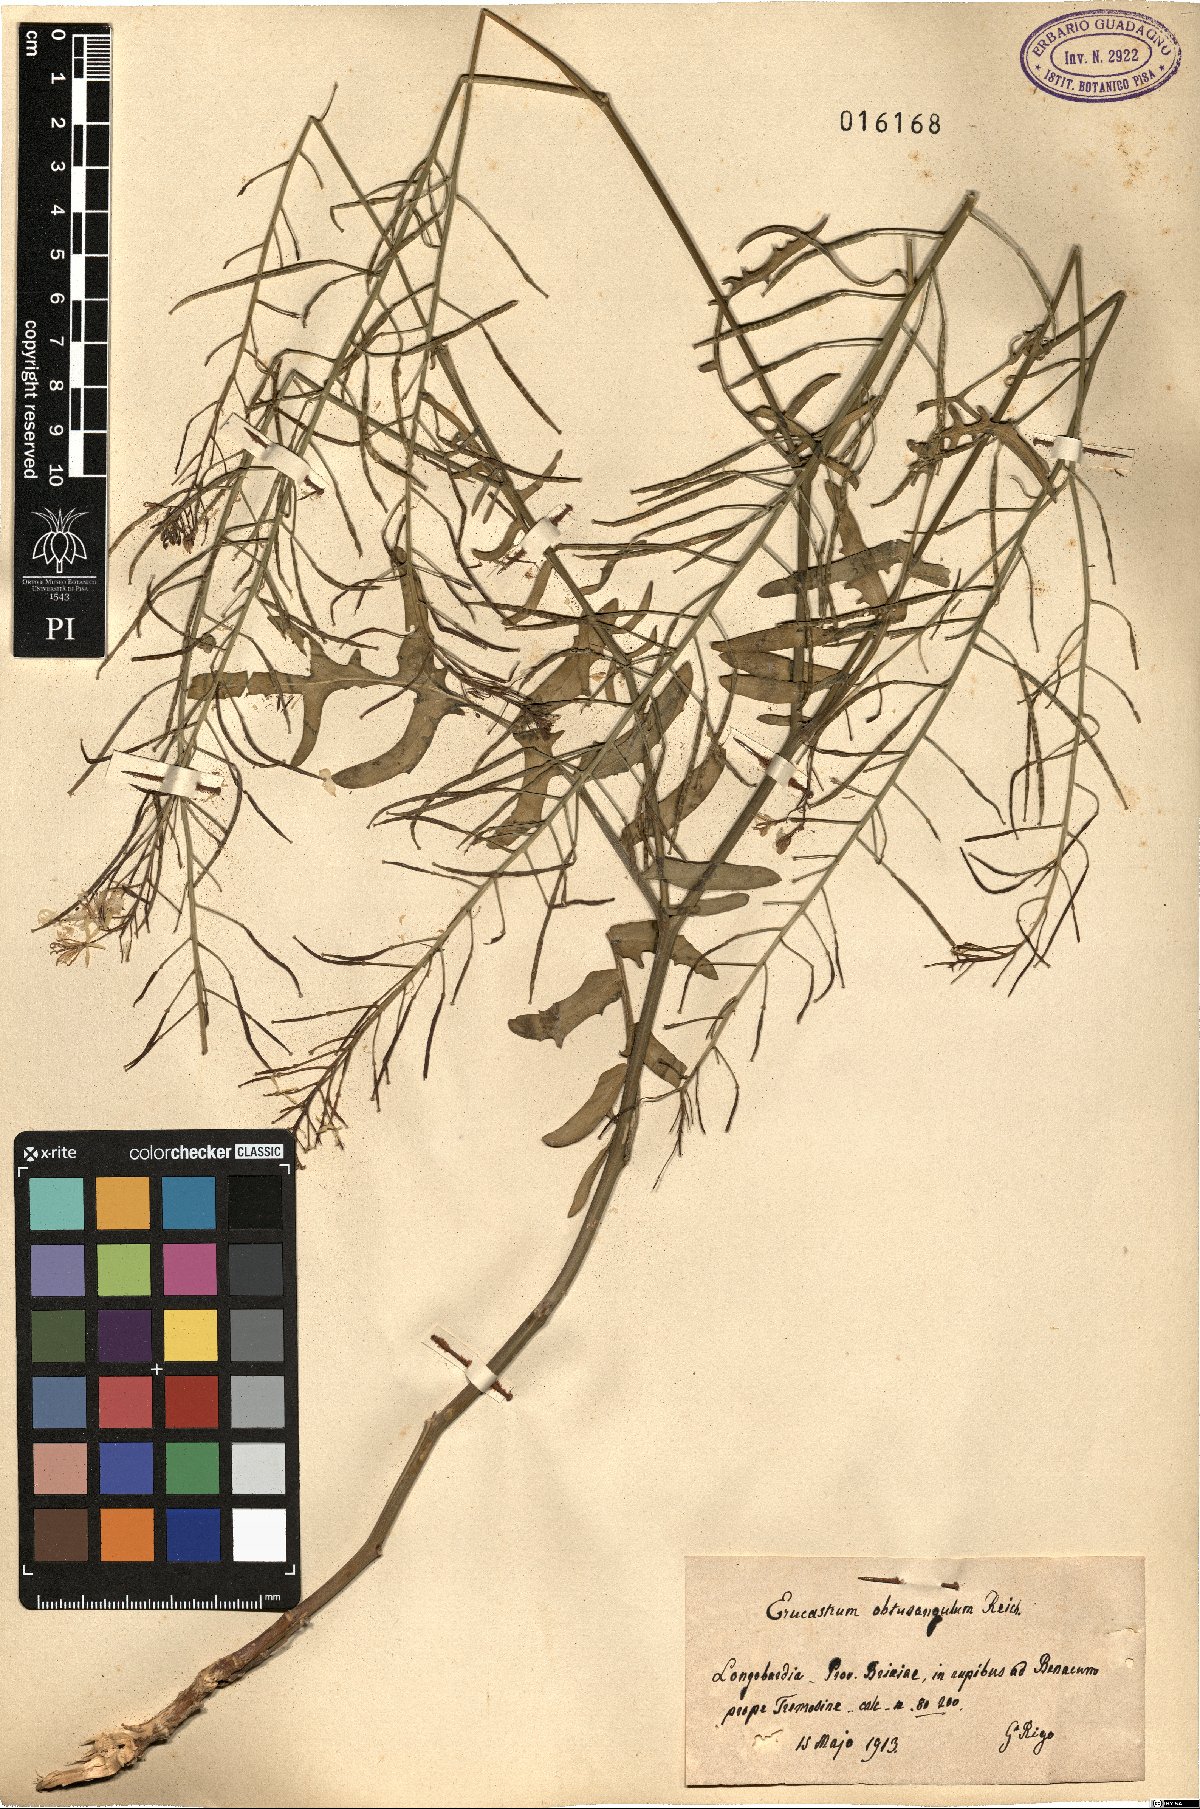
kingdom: Plantae
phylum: Tracheophyta
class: Magnoliopsida
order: Brassicales
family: Brassicaceae
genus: Erucastrum
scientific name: Erucastrum nasturtiifolium
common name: Watercress-leaf rocket
